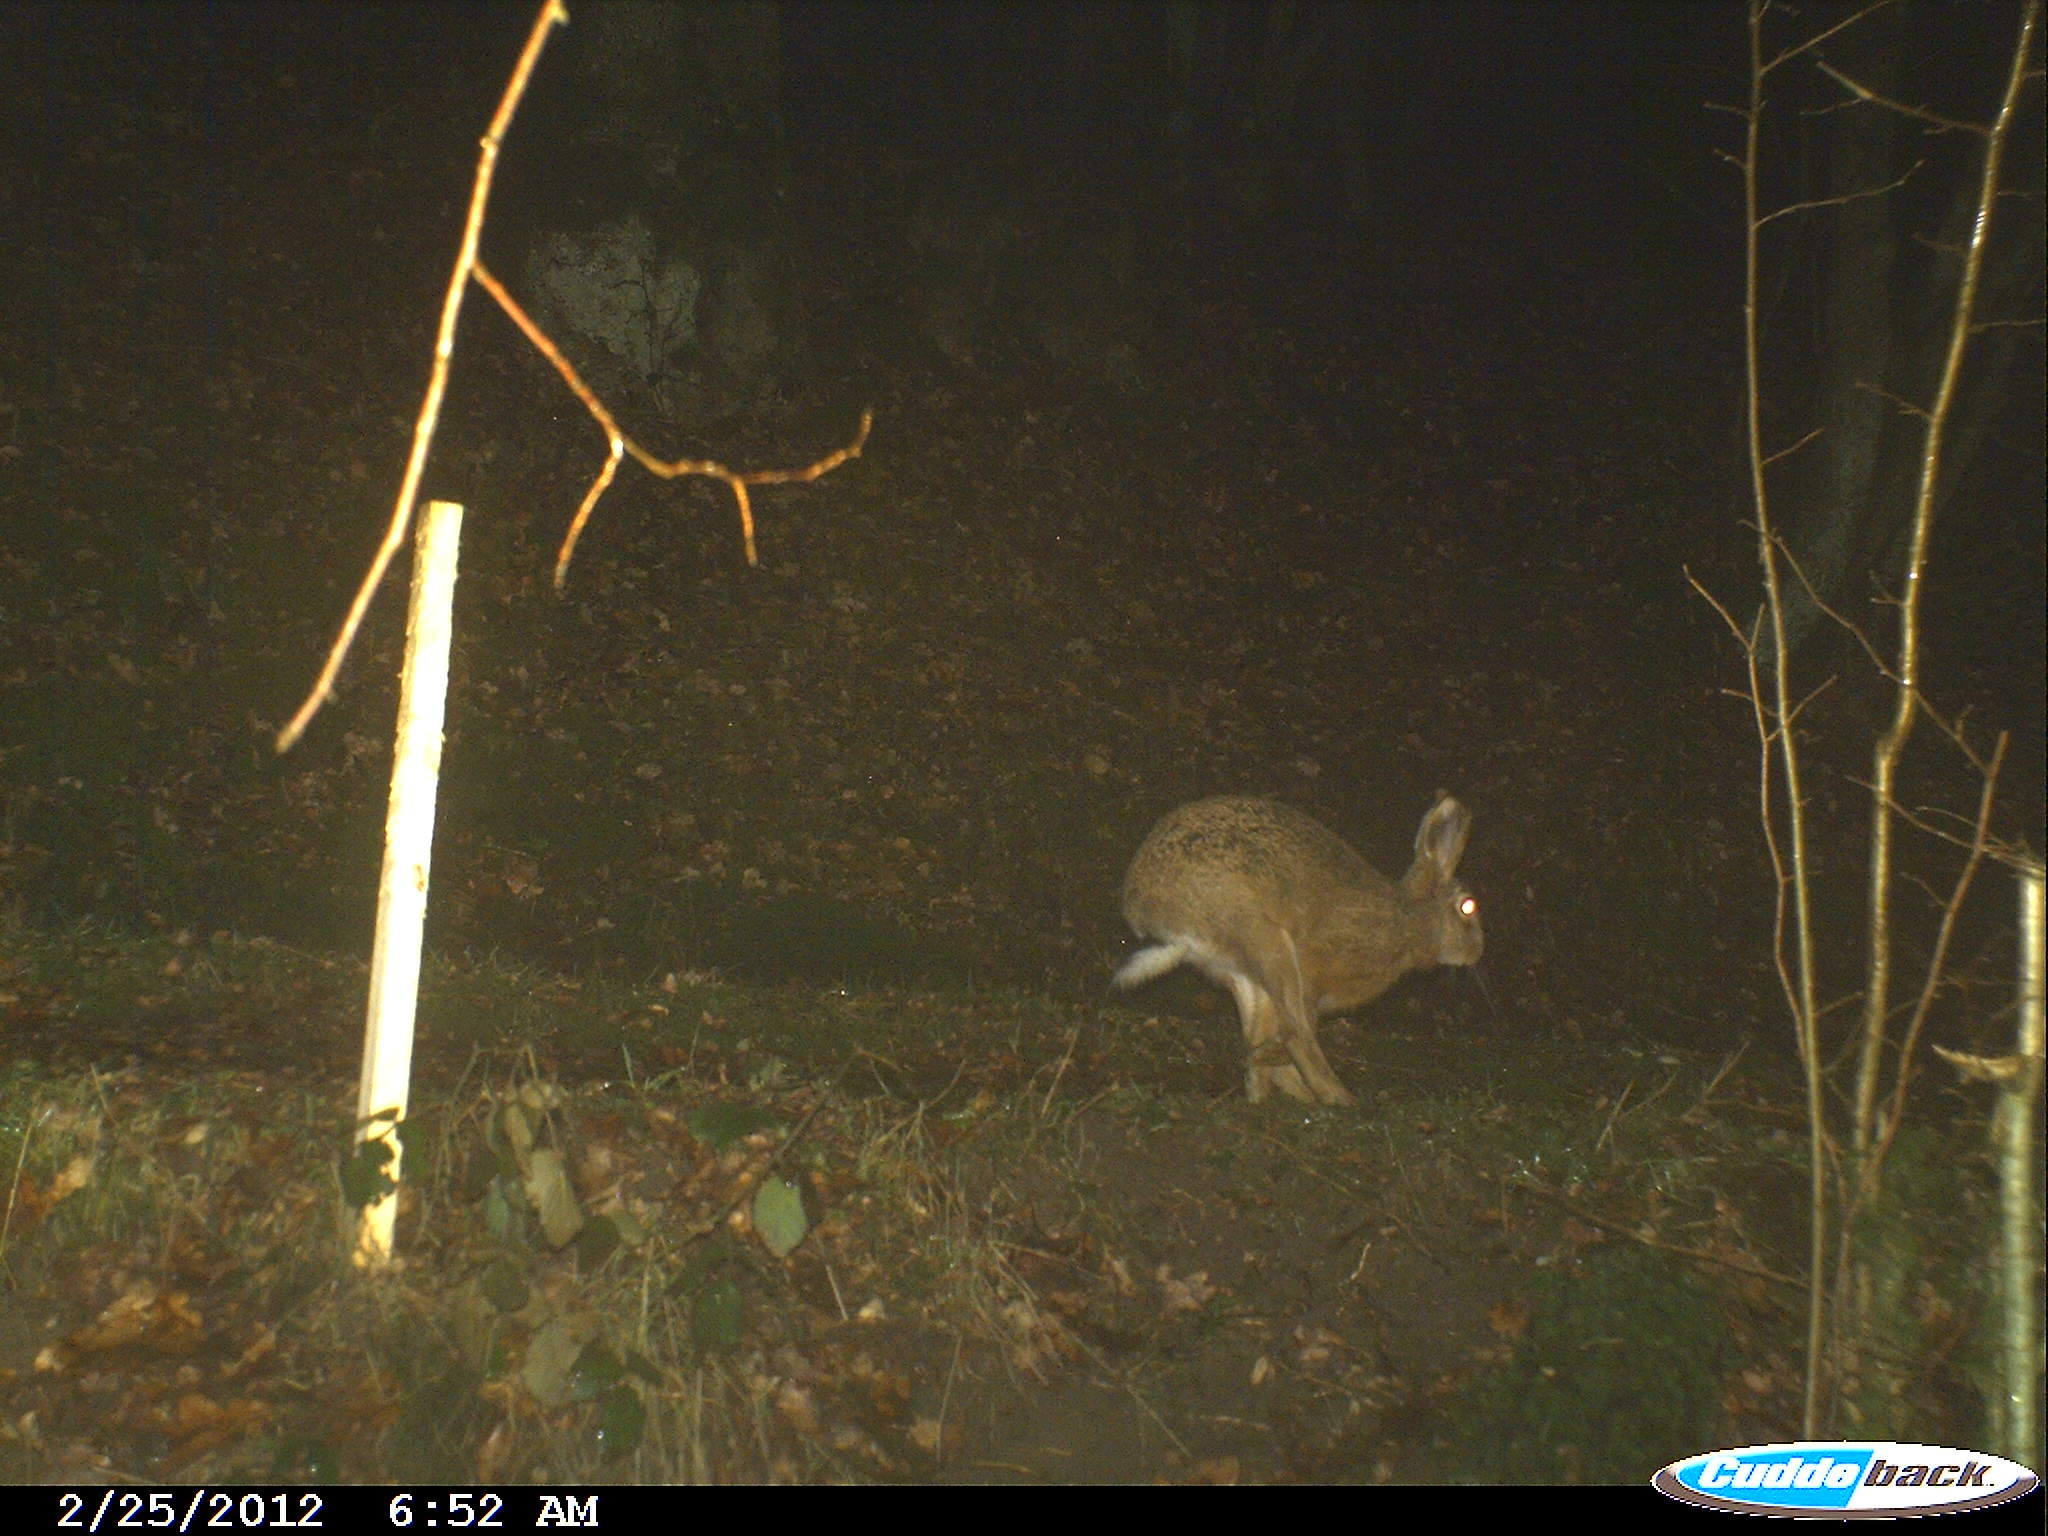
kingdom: Animalia
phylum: Chordata
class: Mammalia
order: Lagomorpha
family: Leporidae
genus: Lepus
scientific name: Lepus europaeus
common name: European hare
